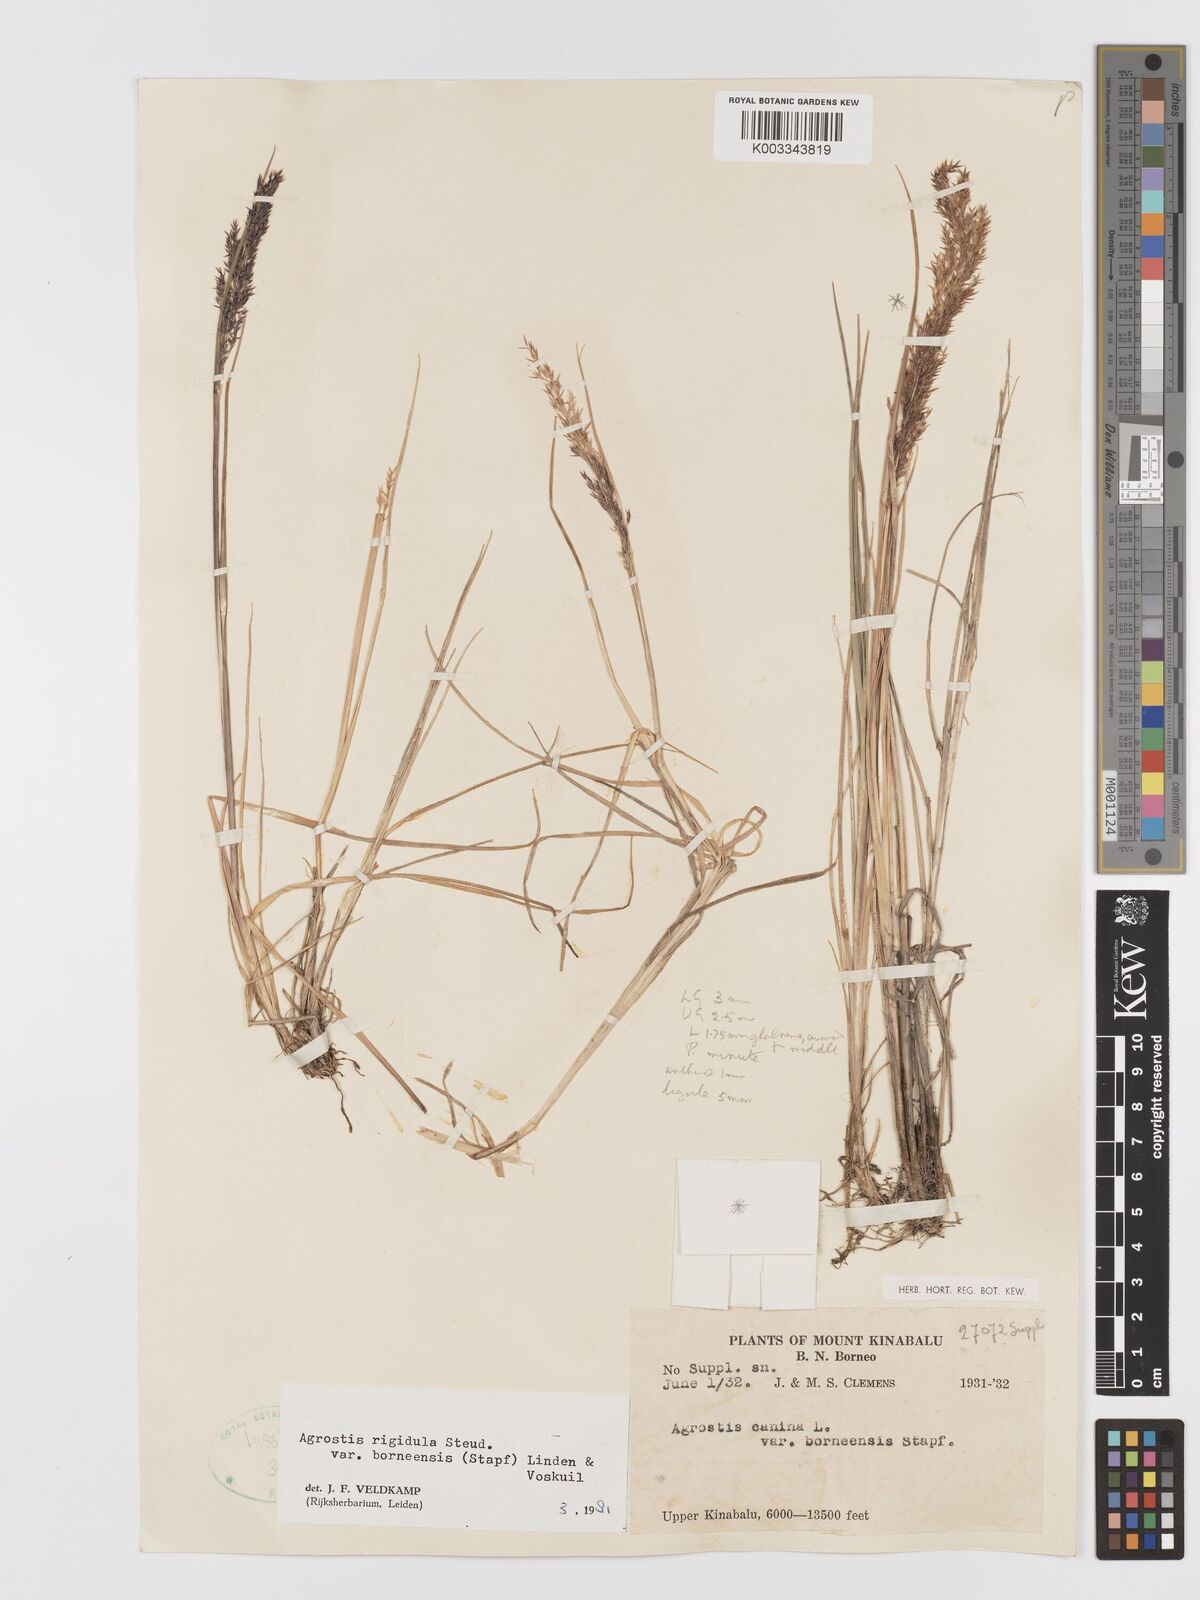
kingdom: Plantae
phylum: Tracheophyta
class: Liliopsida
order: Poales
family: Poaceae
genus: Agrostis
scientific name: Agrostis infirma
